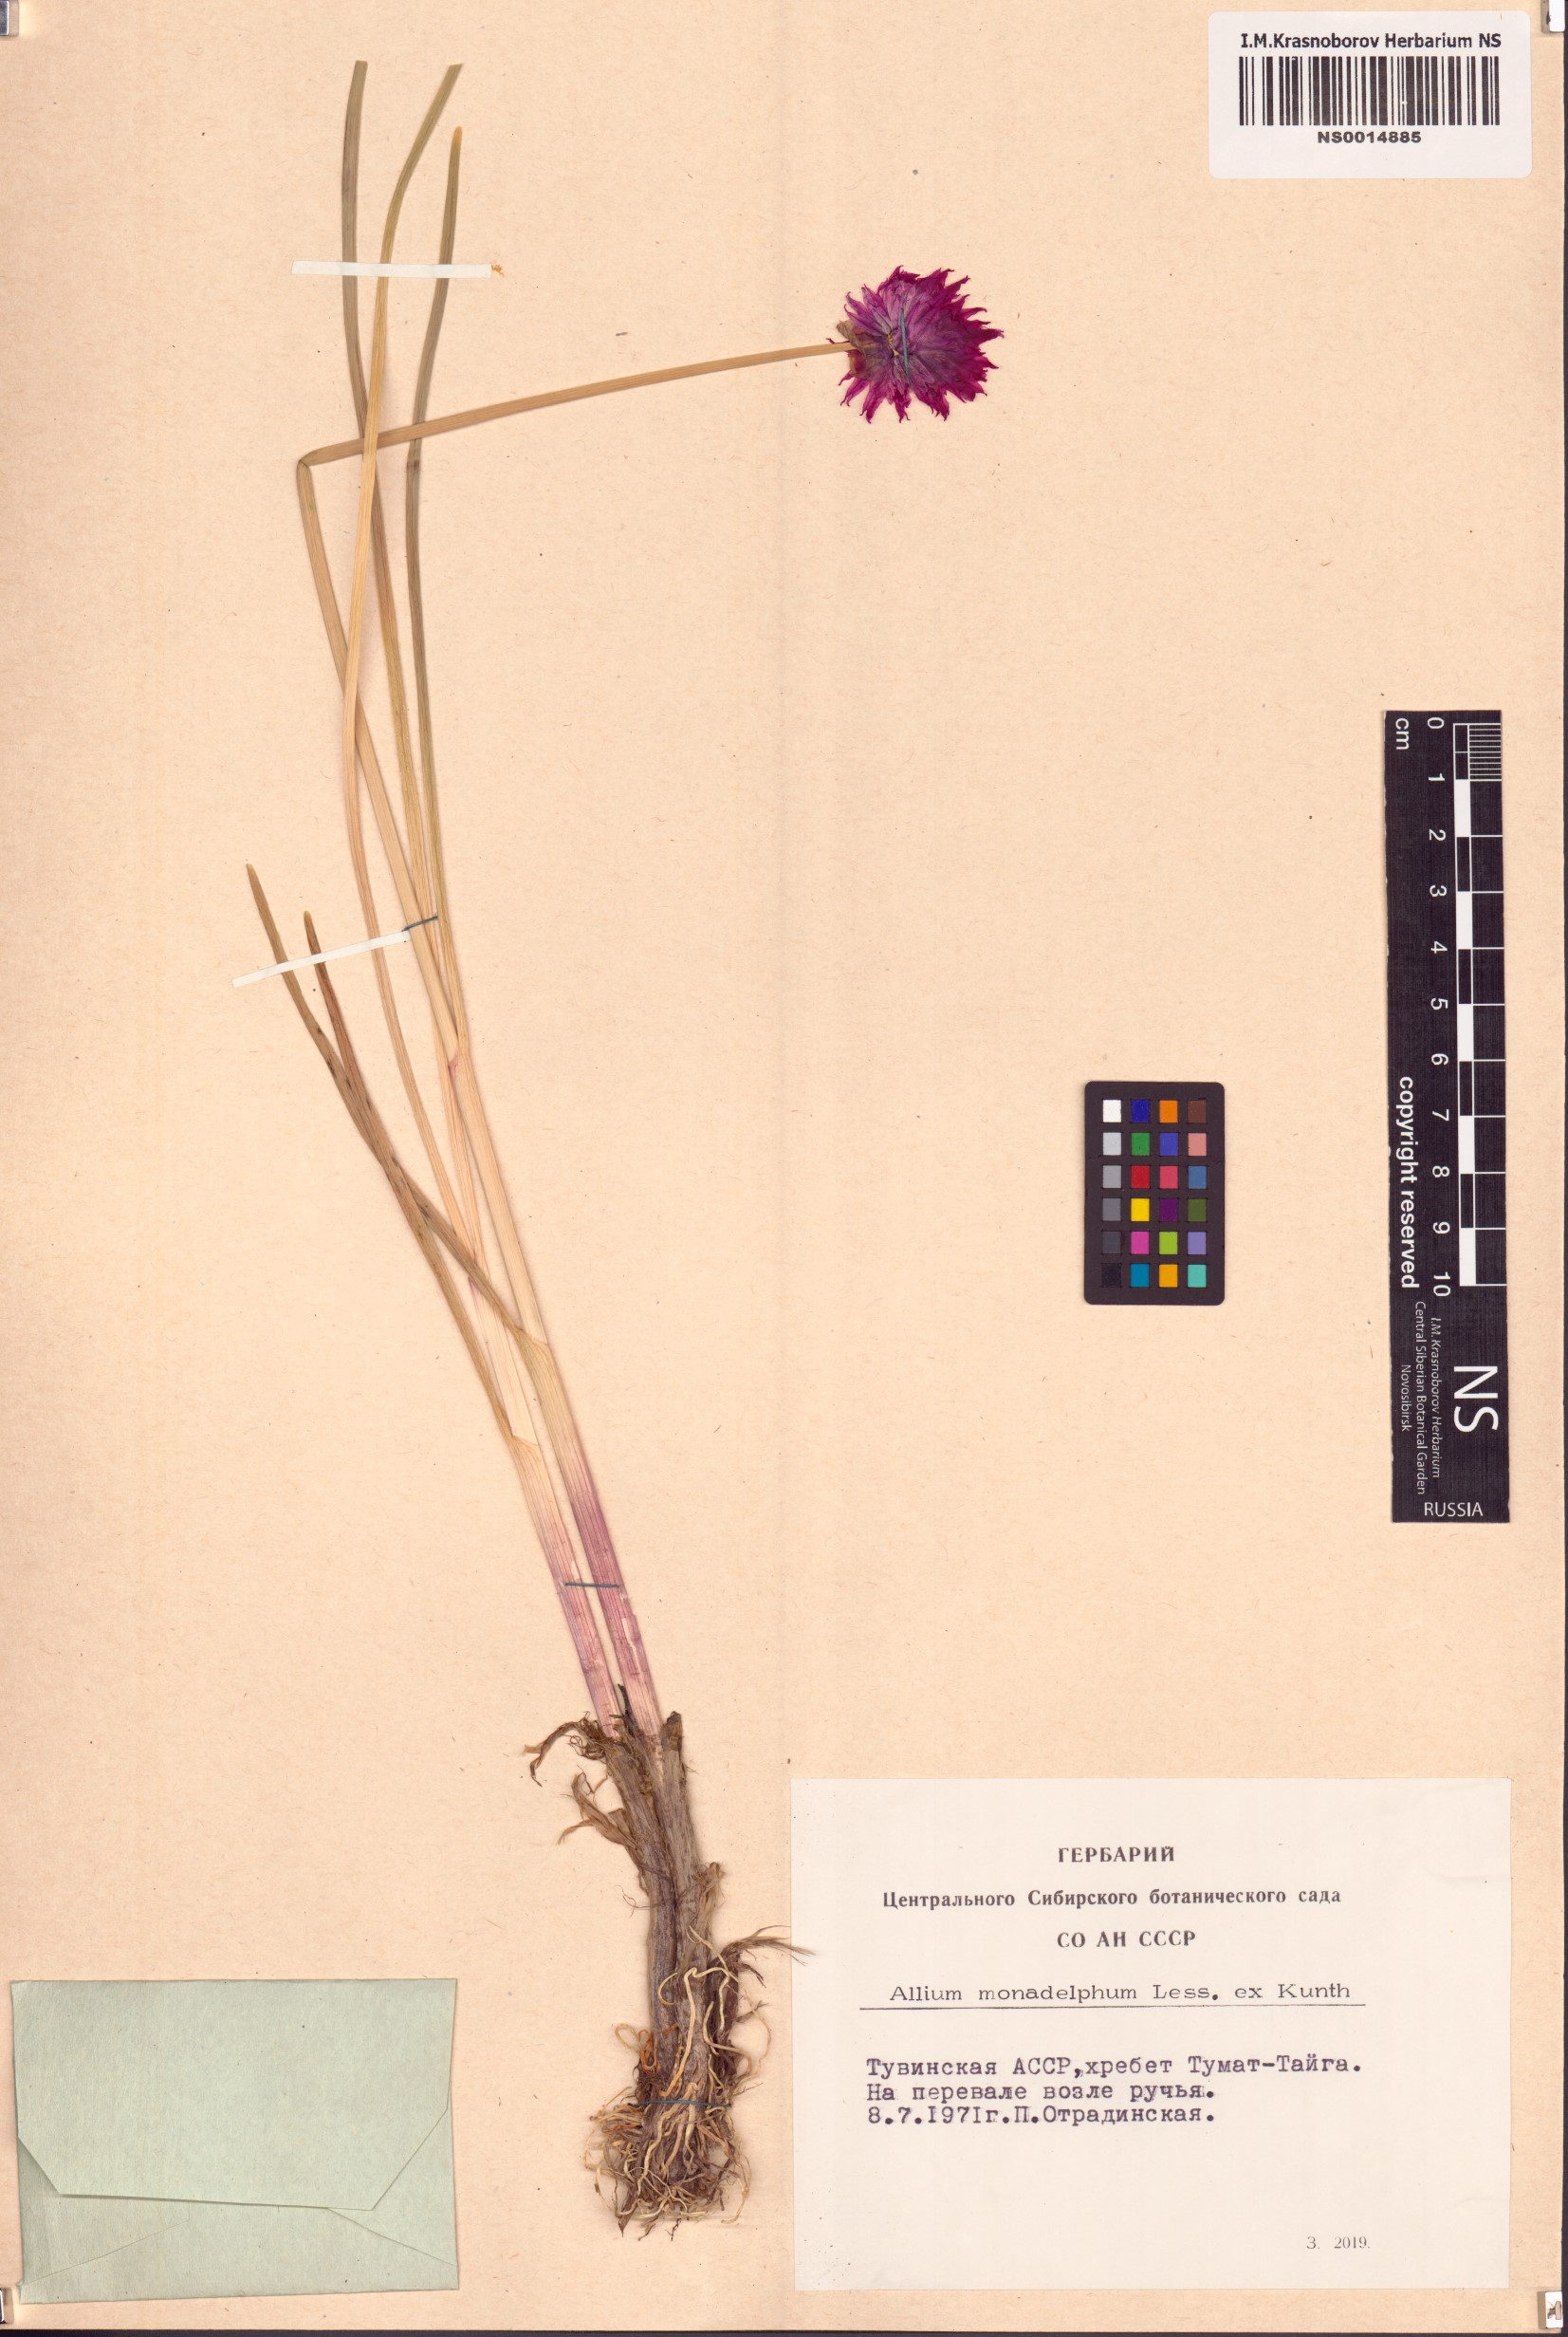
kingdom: Plantae
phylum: Tracheophyta
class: Liliopsida
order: Asparagales
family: Amaryllidaceae
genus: Allium
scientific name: Allium atrosanguineum
